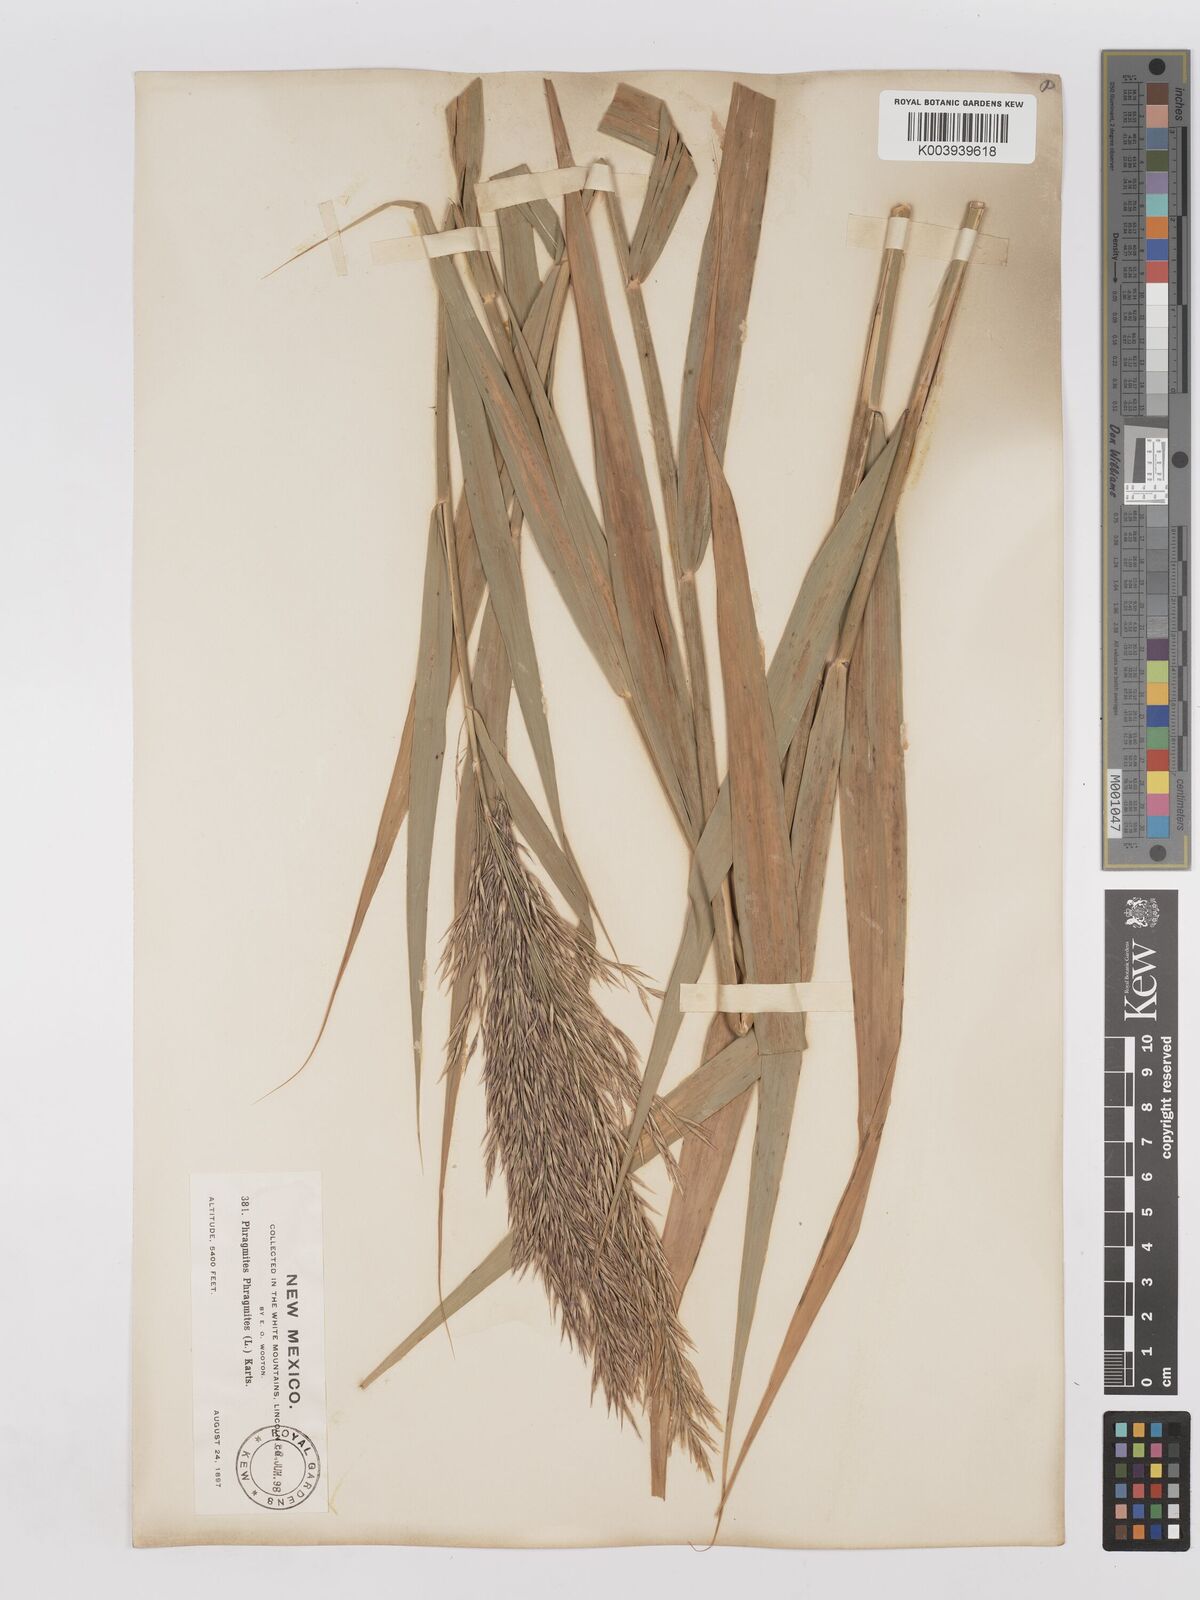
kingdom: Plantae
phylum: Tracheophyta
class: Liliopsida
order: Poales
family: Poaceae
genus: Phragmites
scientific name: Phragmites australis
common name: Common reed
